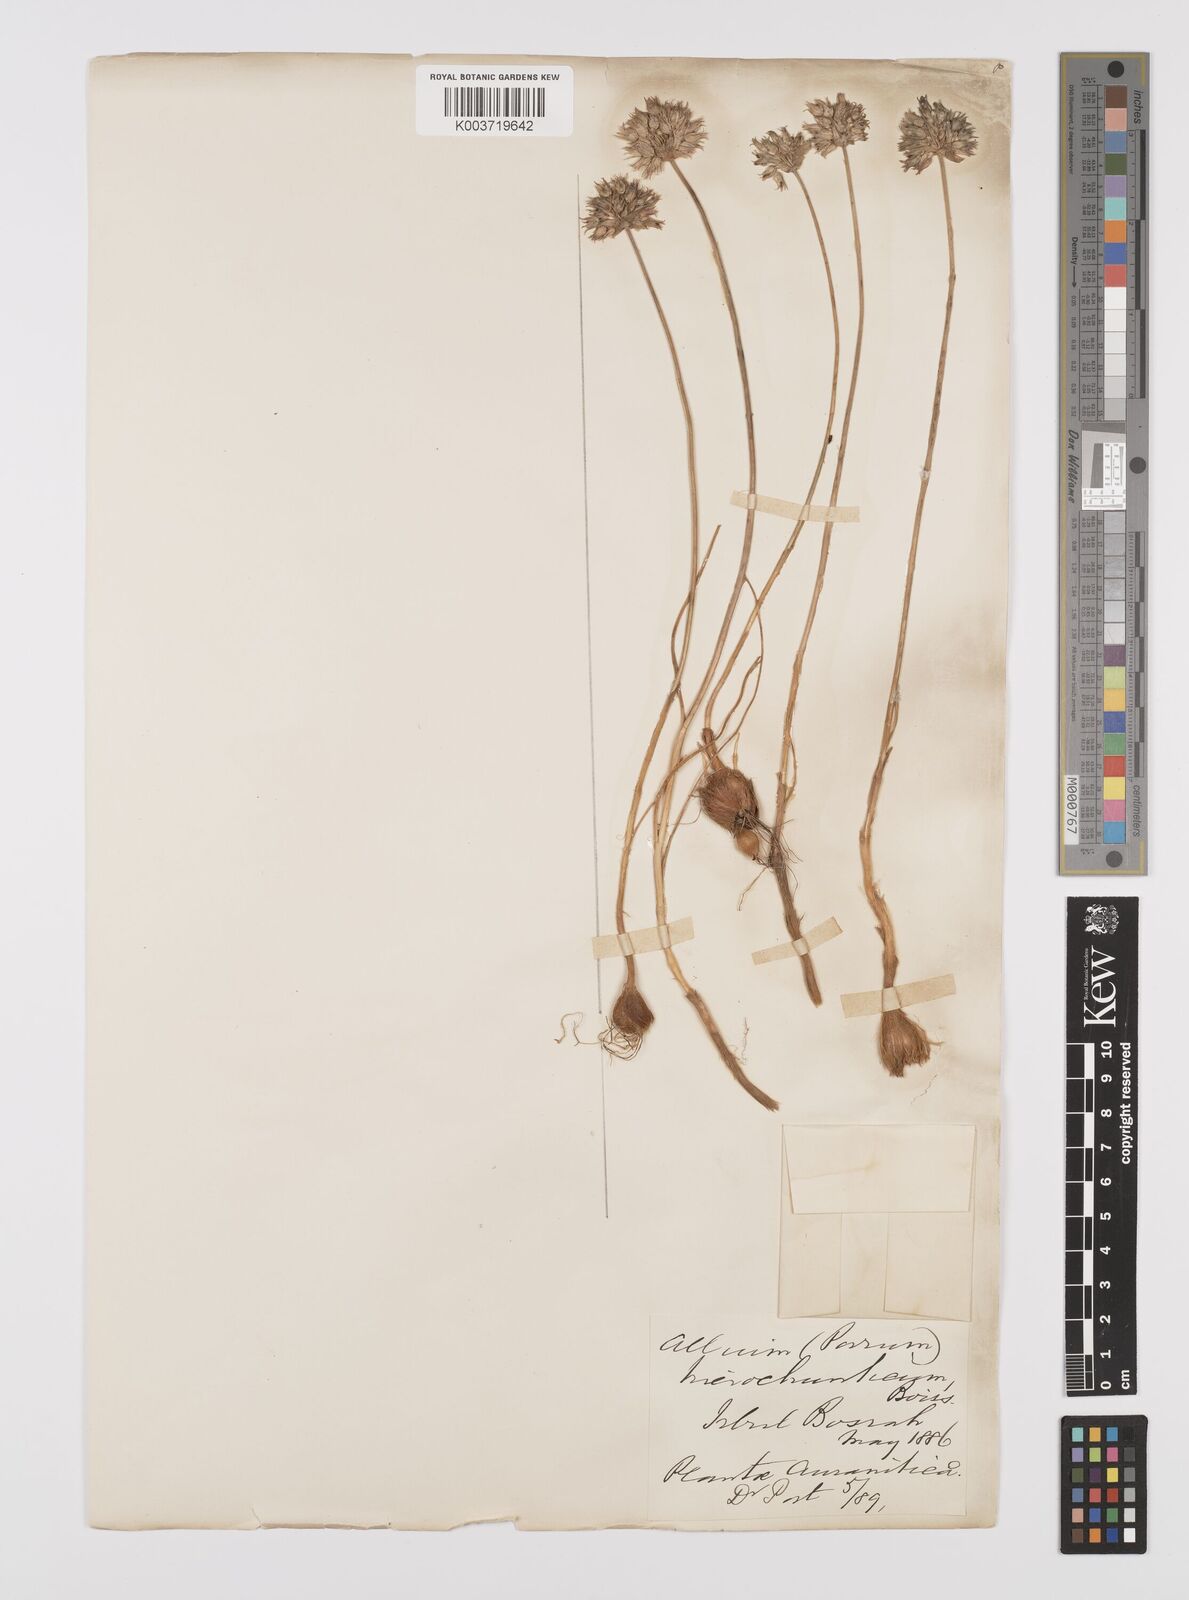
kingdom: Plantae
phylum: Tracheophyta
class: Liliopsida
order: Asparagales
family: Amaryllidaceae
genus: Allium
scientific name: Allium ascalonicum
